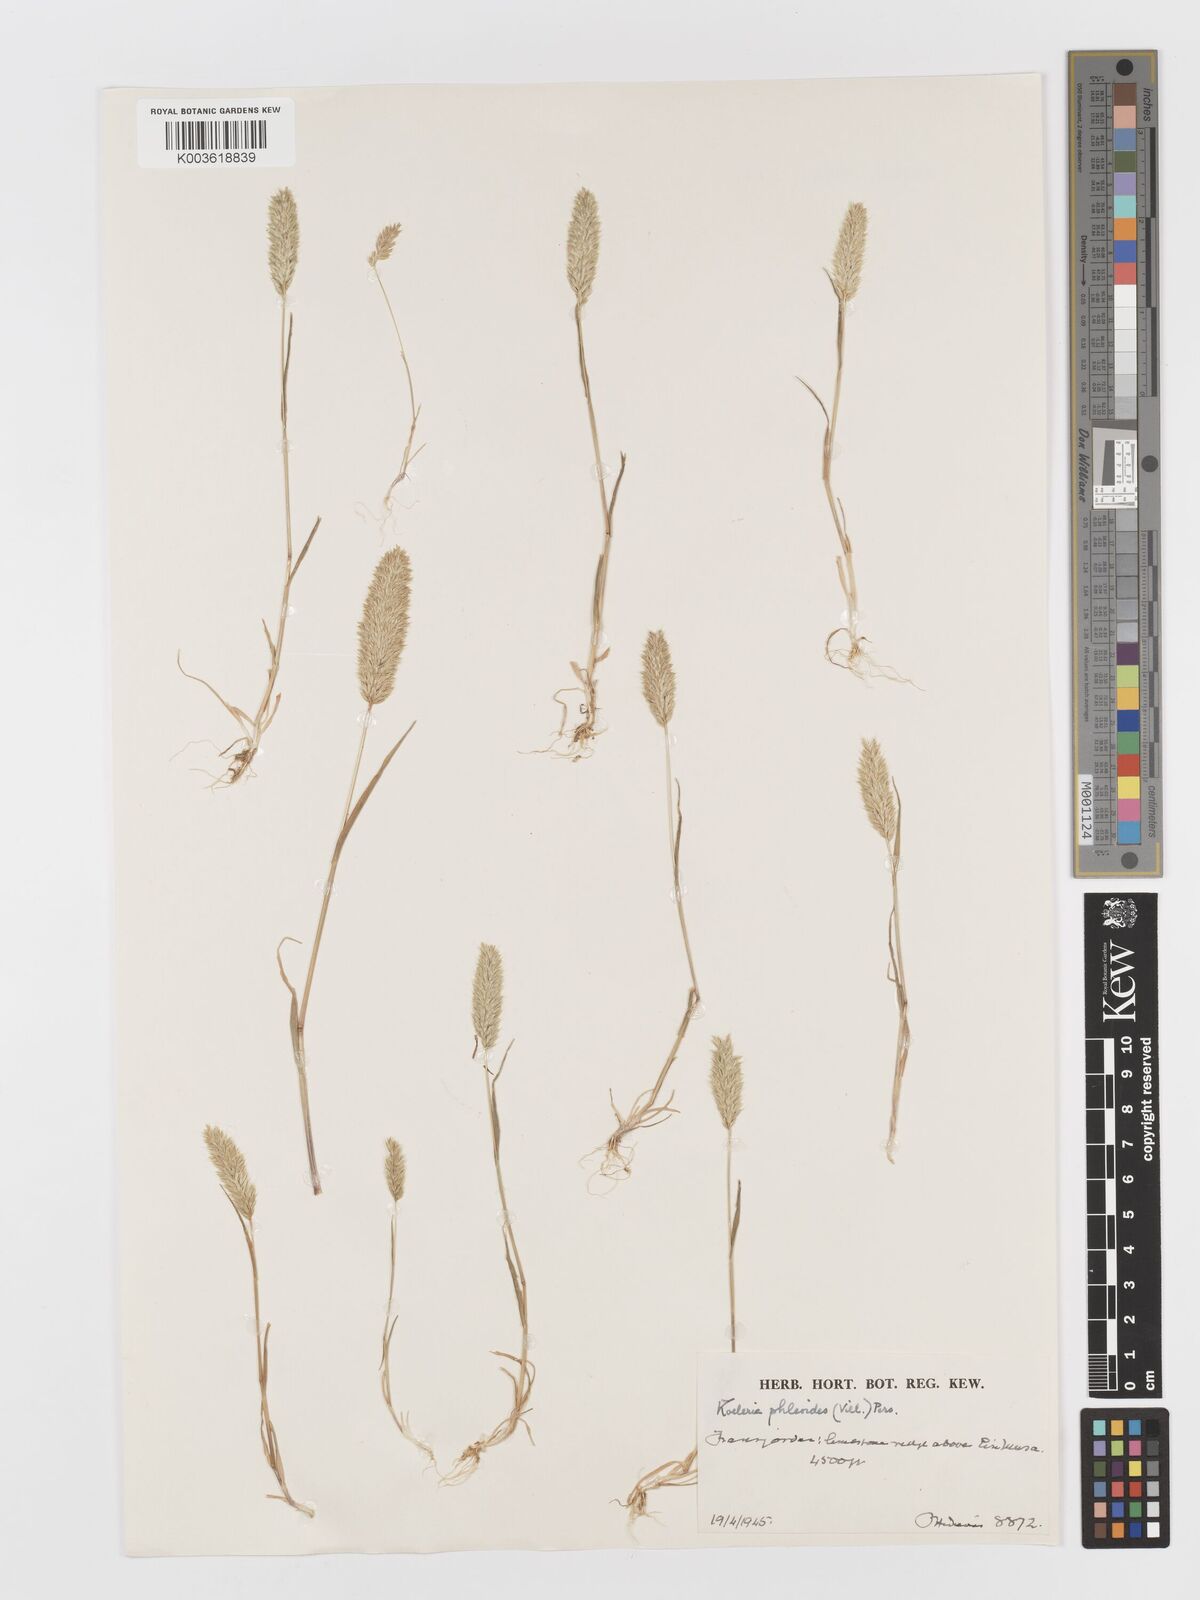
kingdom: Plantae
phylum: Tracheophyta
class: Liliopsida
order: Poales
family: Poaceae
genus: Rostraria
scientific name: Rostraria cristata
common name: Mediterranean hair-grass
